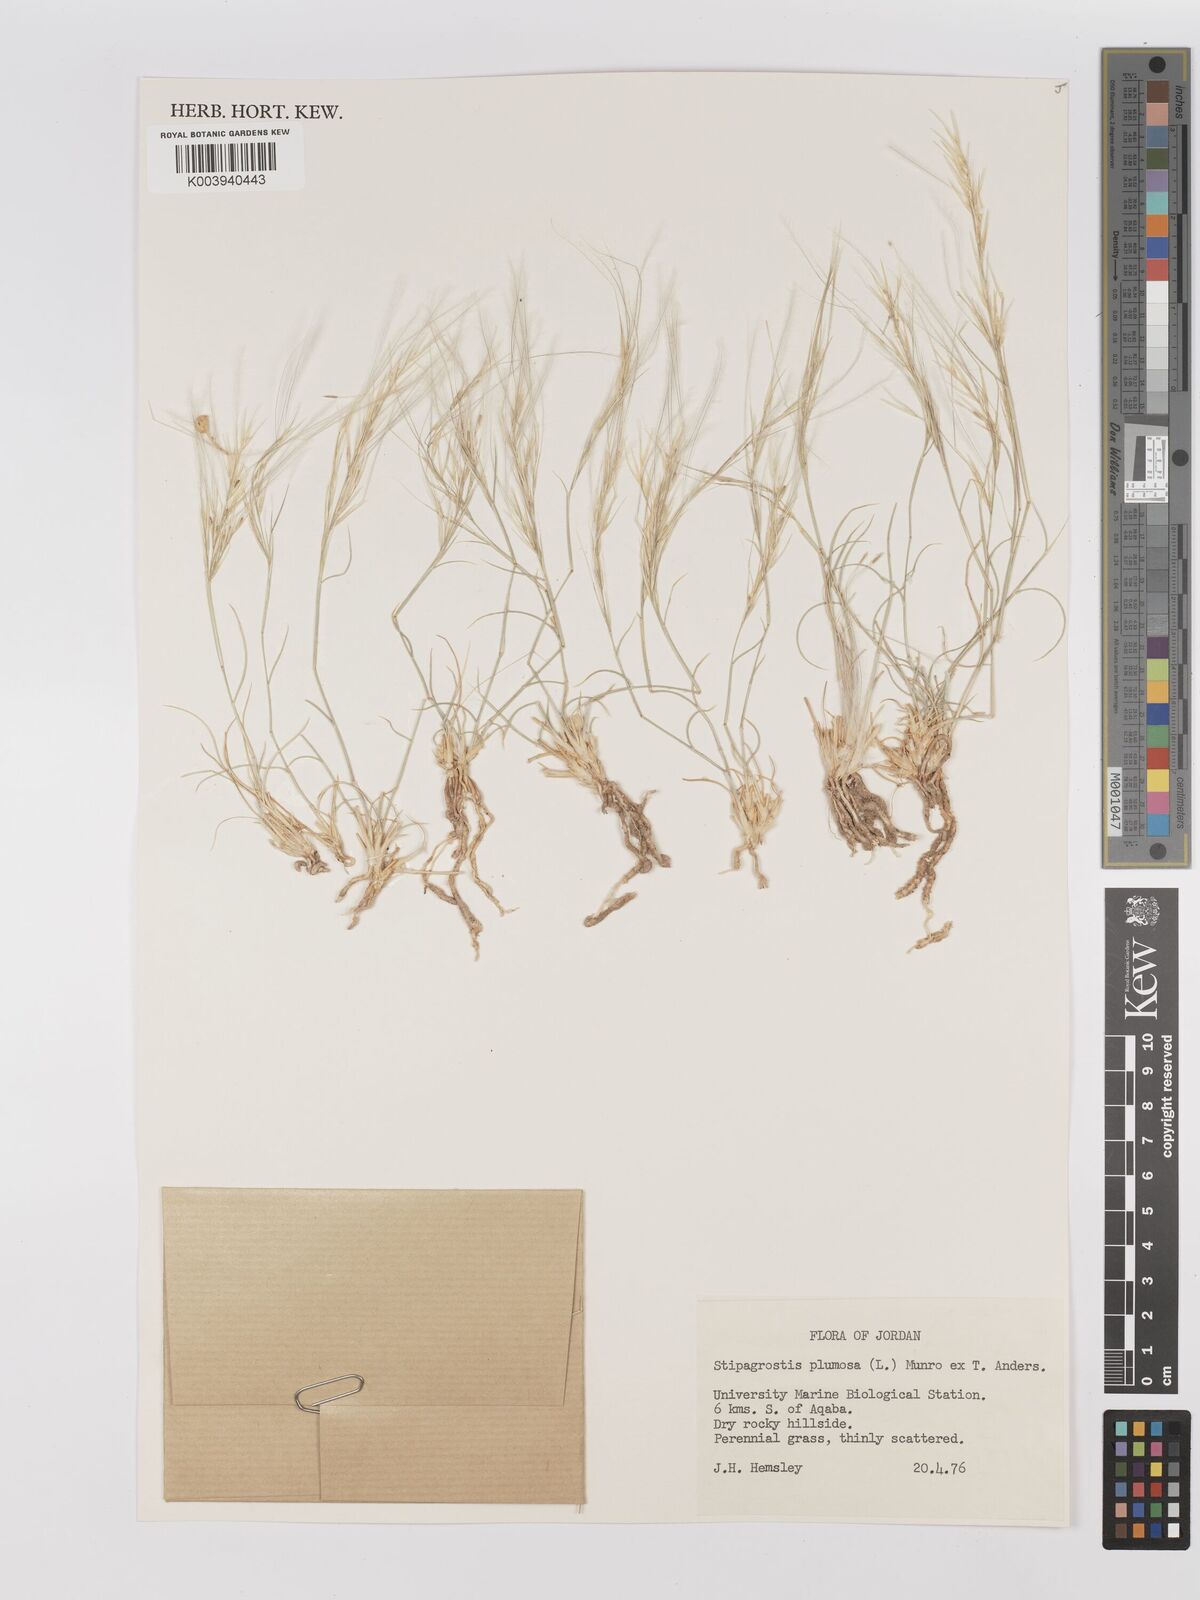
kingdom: Plantae
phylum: Tracheophyta
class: Liliopsida
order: Poales
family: Poaceae
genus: Stipagrostis
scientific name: Stipagrostis plumosa
